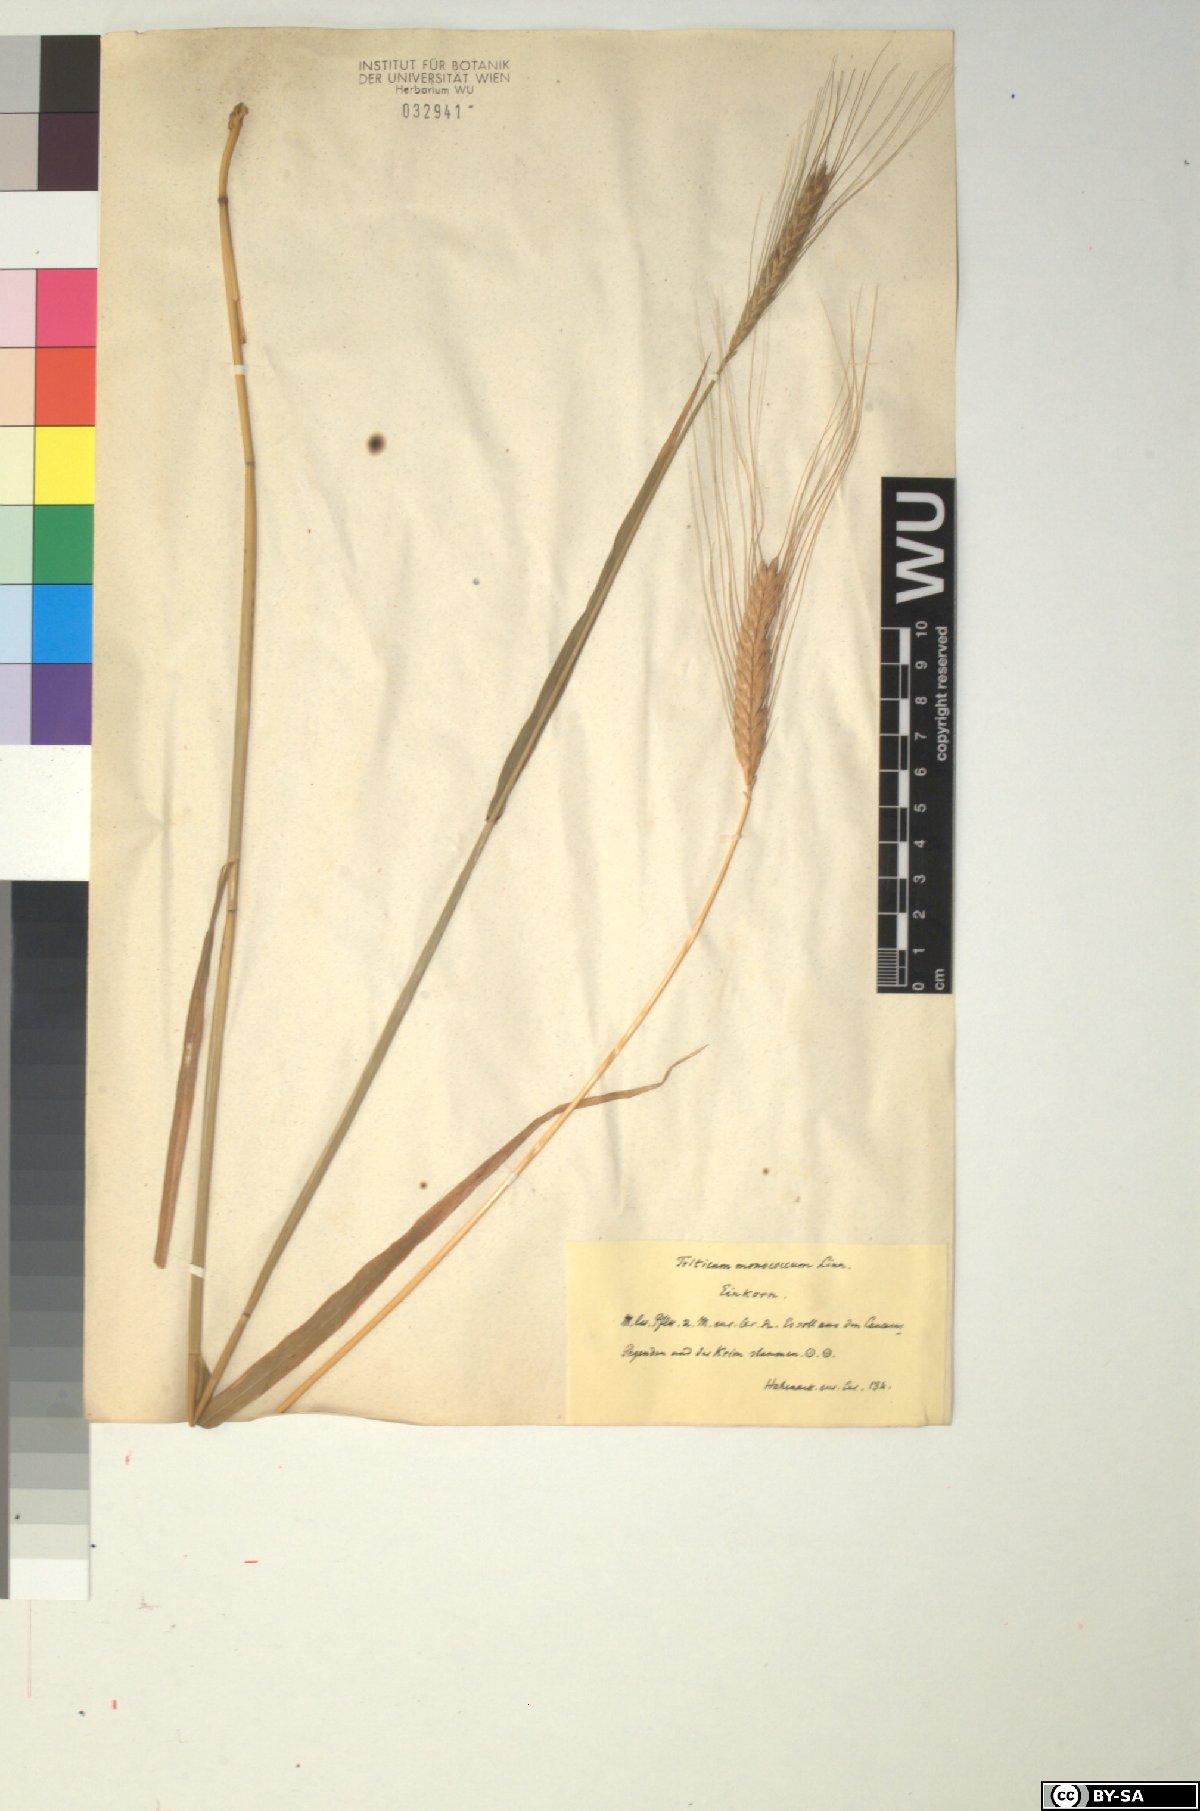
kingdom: Plantae
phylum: Tracheophyta
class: Liliopsida
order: Poales
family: Poaceae
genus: Triticum
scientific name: Triticum monococcum
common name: Einkorn
